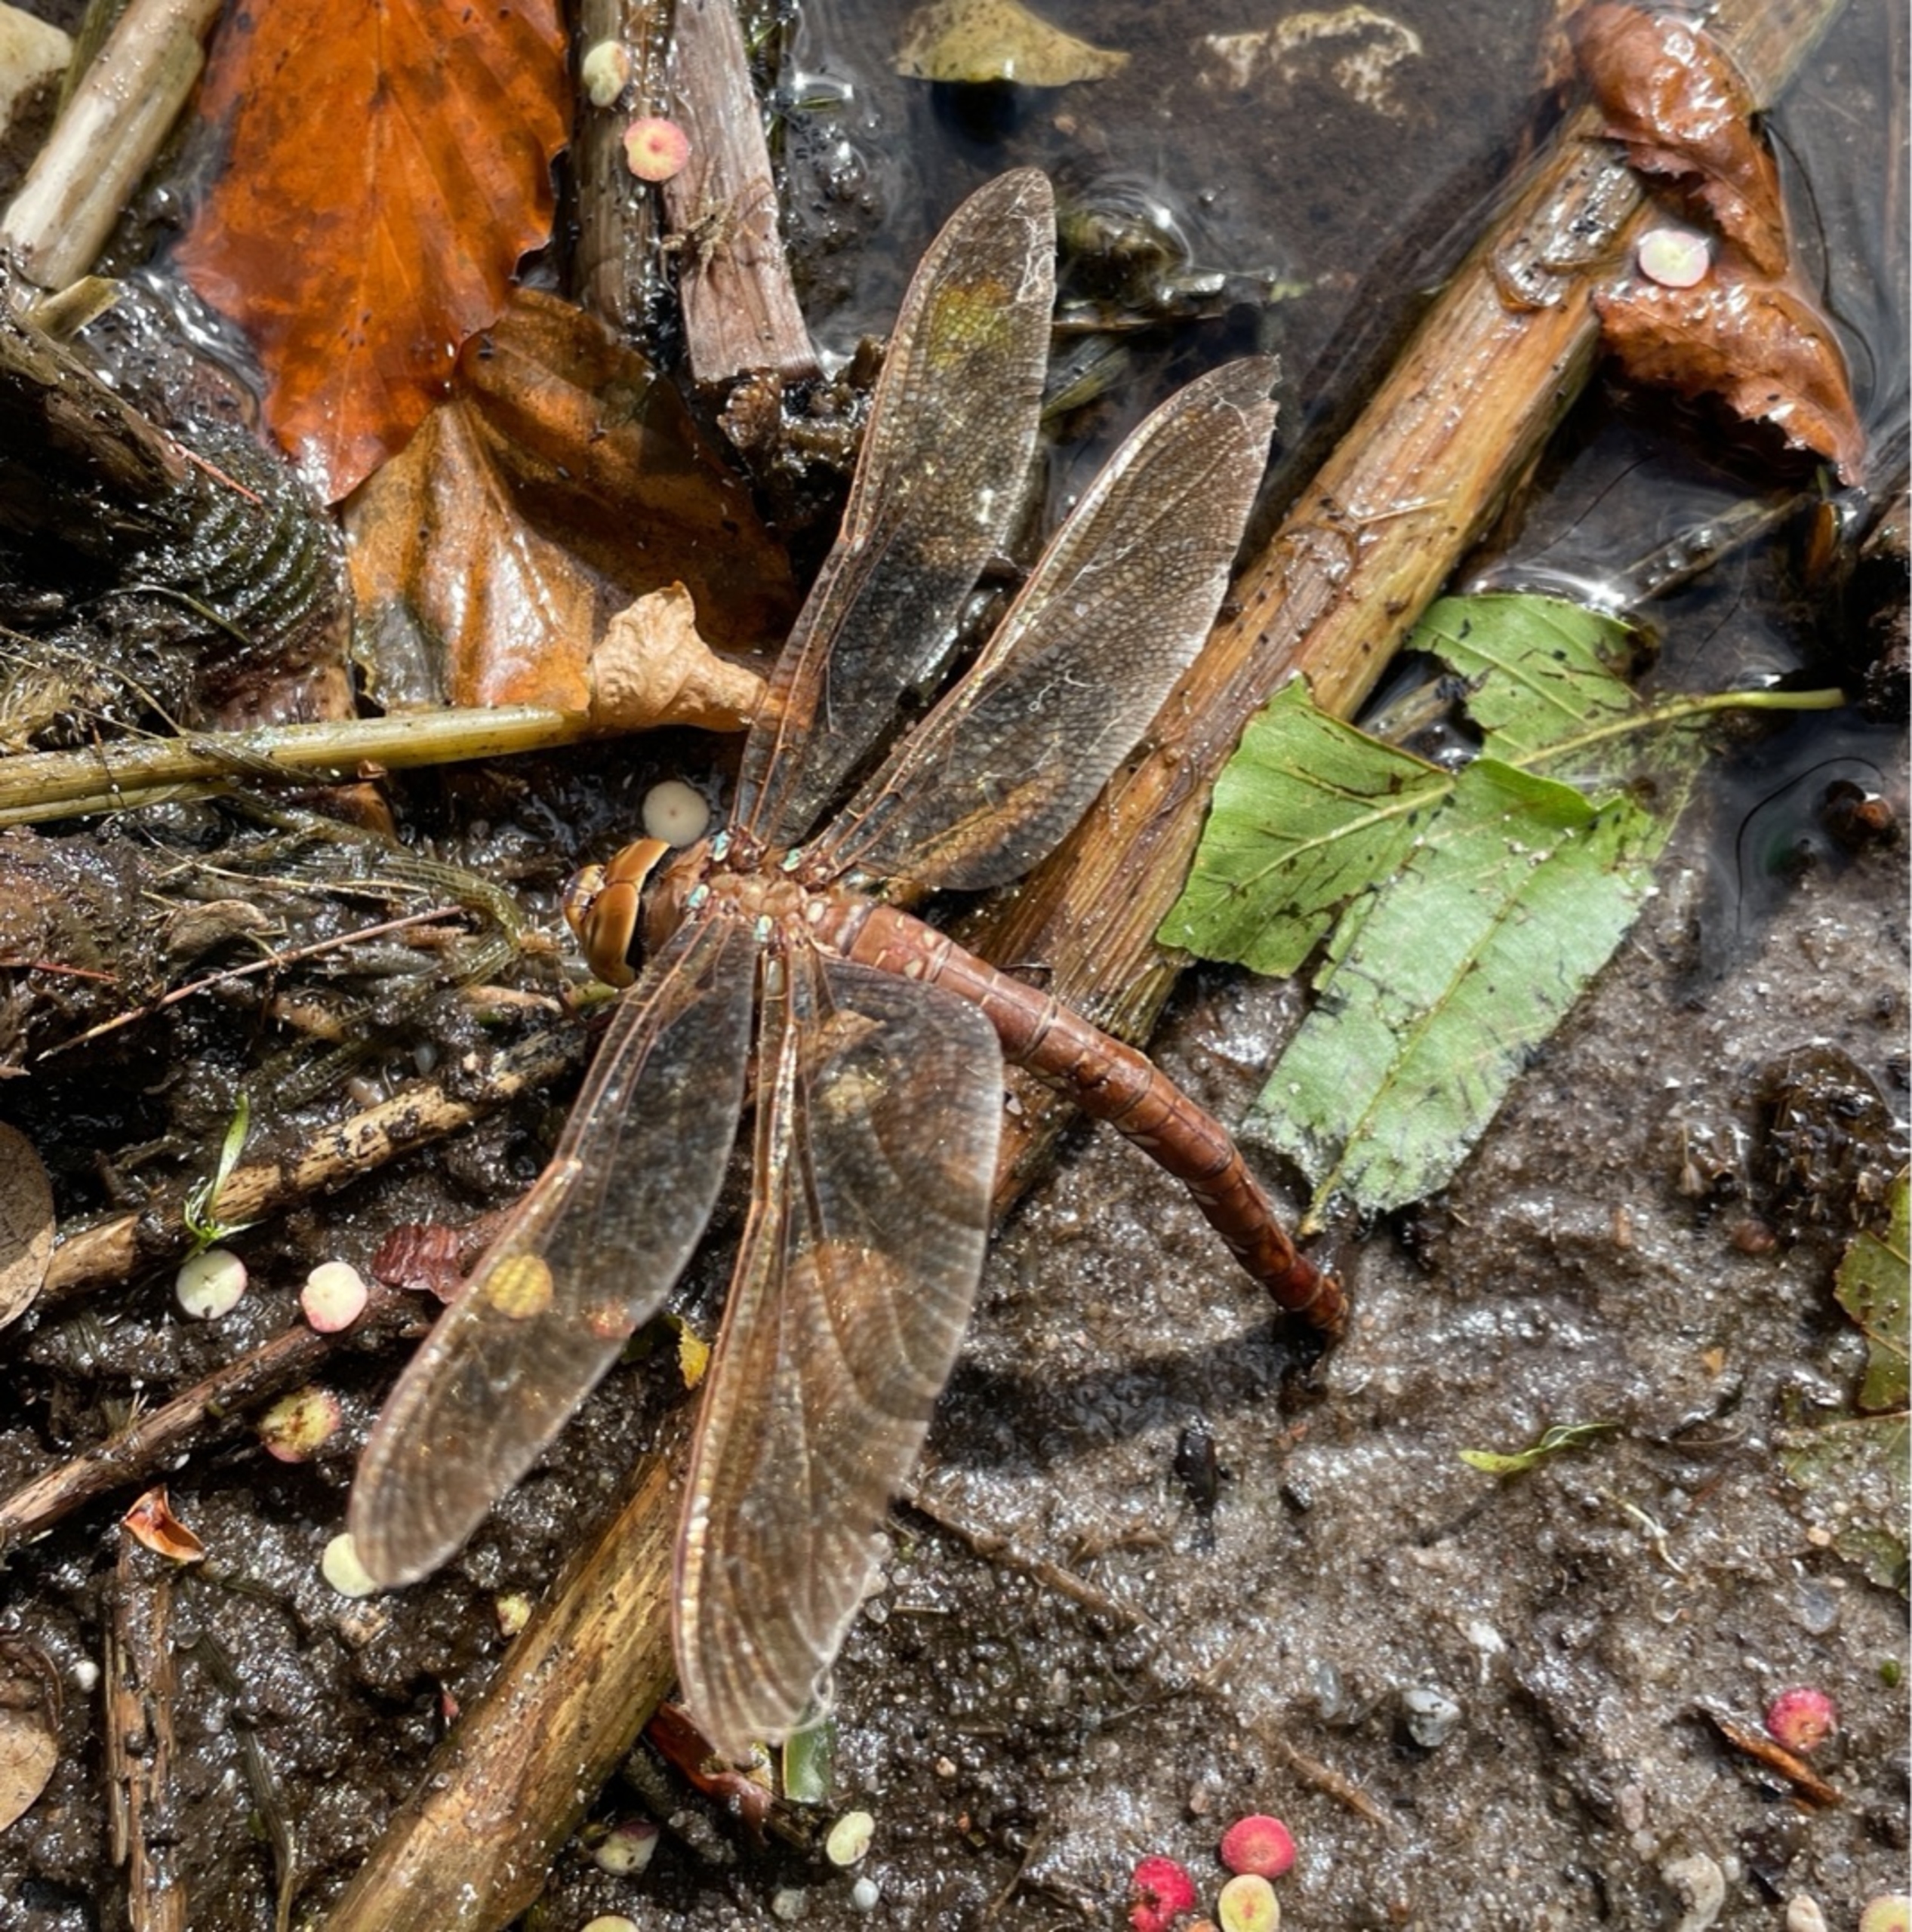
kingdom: Animalia
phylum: Arthropoda
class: Insecta
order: Odonata
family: Aeshnidae
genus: Aeshna
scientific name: Aeshna grandis
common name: Brun mosaikguldsmed
